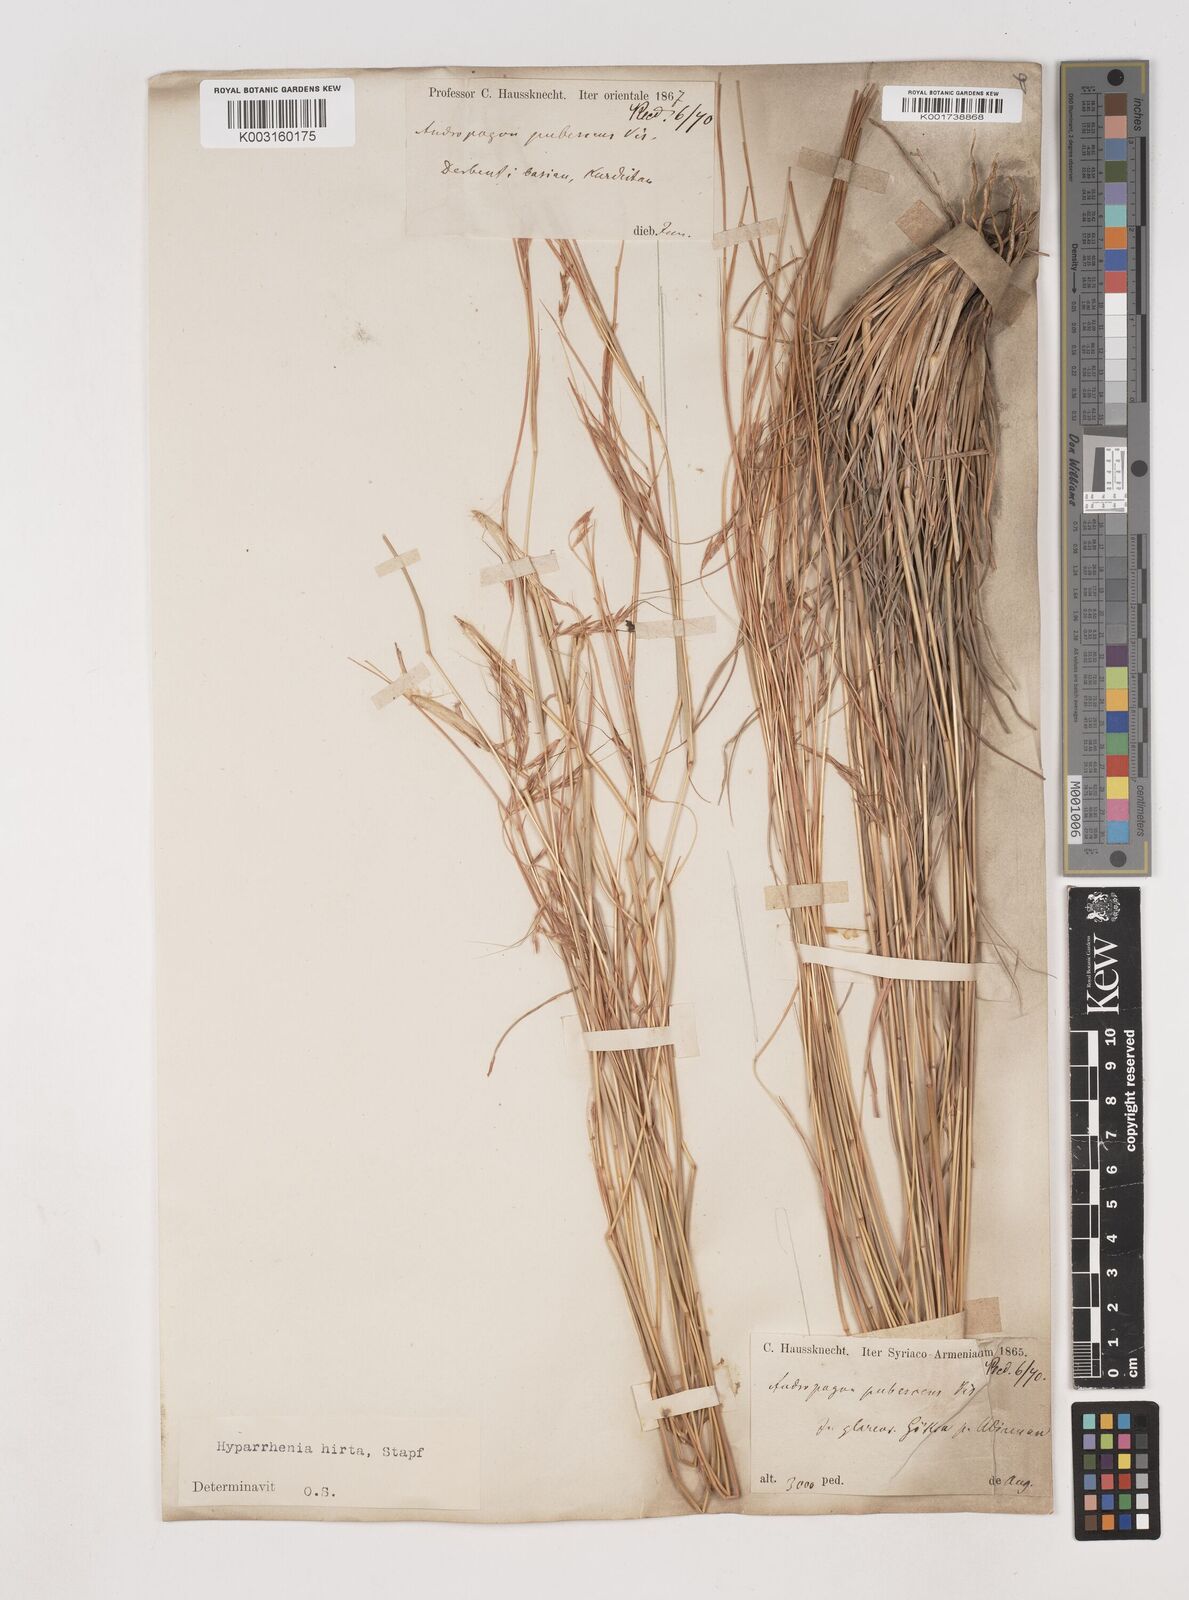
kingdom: Plantae
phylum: Tracheophyta
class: Liliopsida
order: Poales
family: Poaceae
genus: Hyparrhenia
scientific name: Hyparrhenia hirta
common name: Thatching grass
